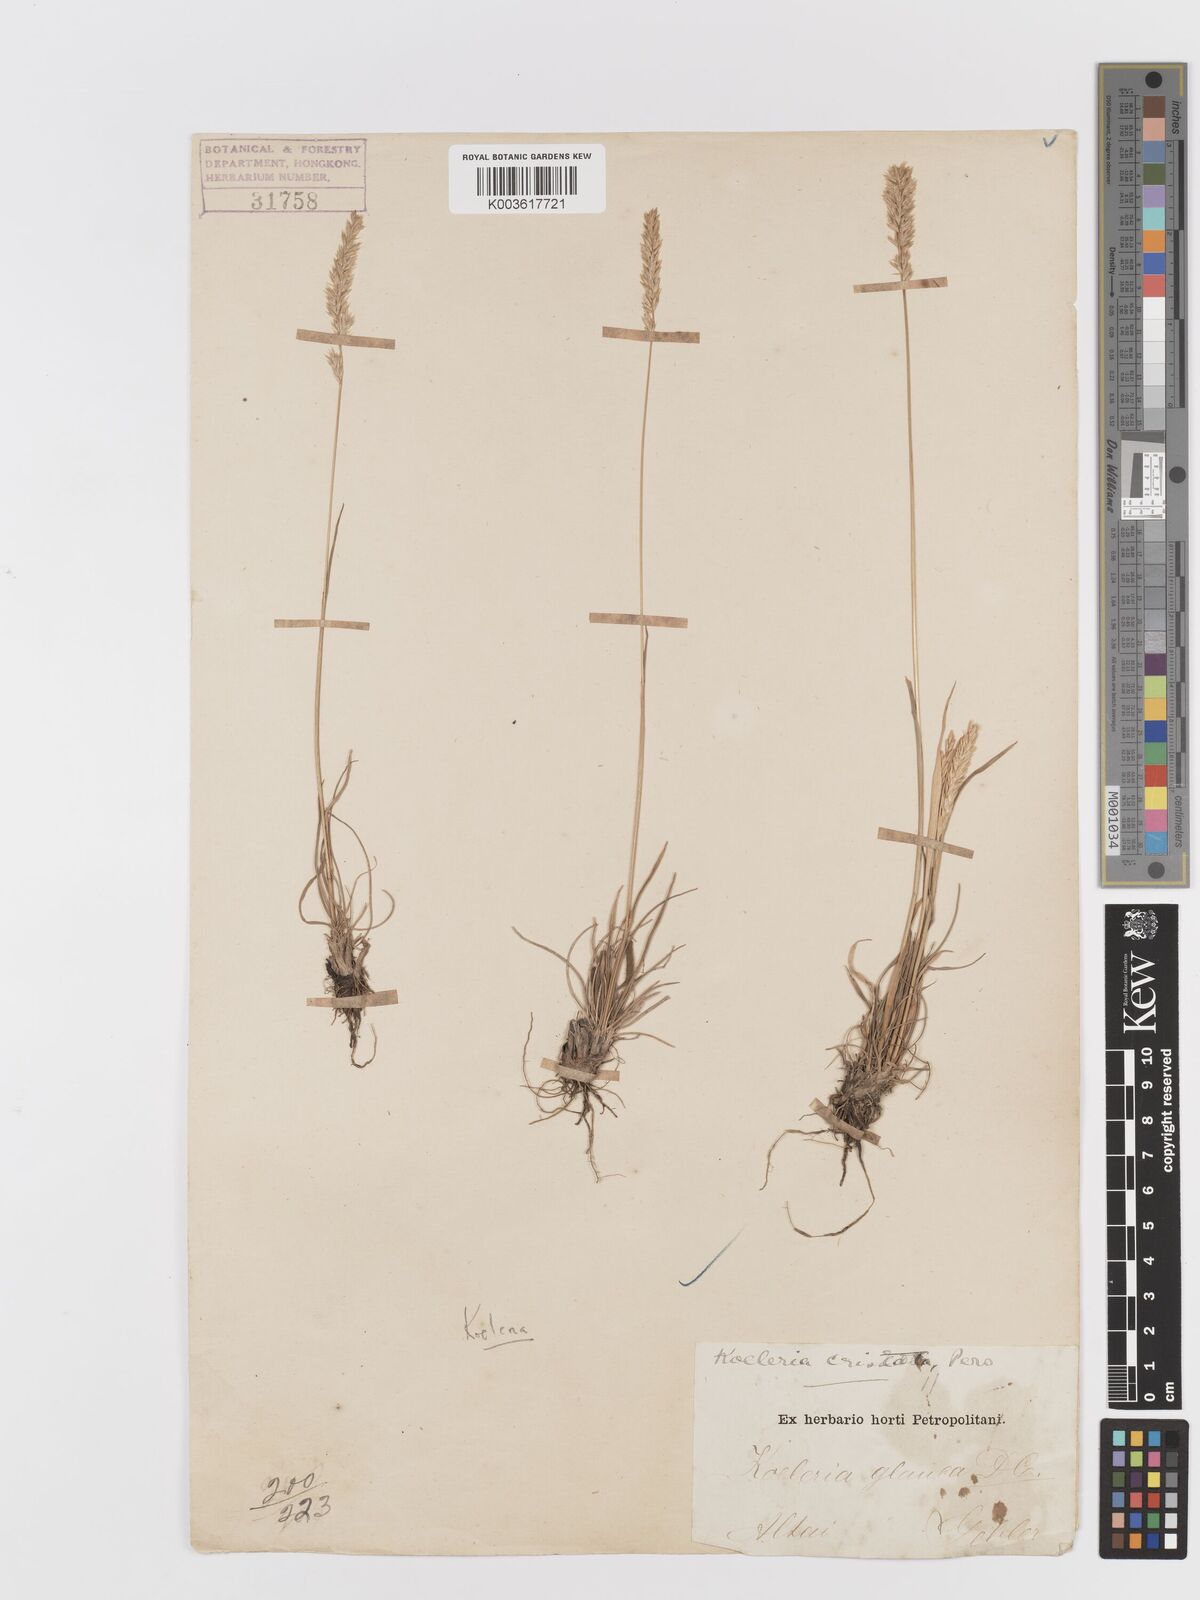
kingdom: Plantae
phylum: Tracheophyta
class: Liliopsida
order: Poales
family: Poaceae
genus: Koeleria
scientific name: Koeleria macrantha
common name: Crested hair-grass
